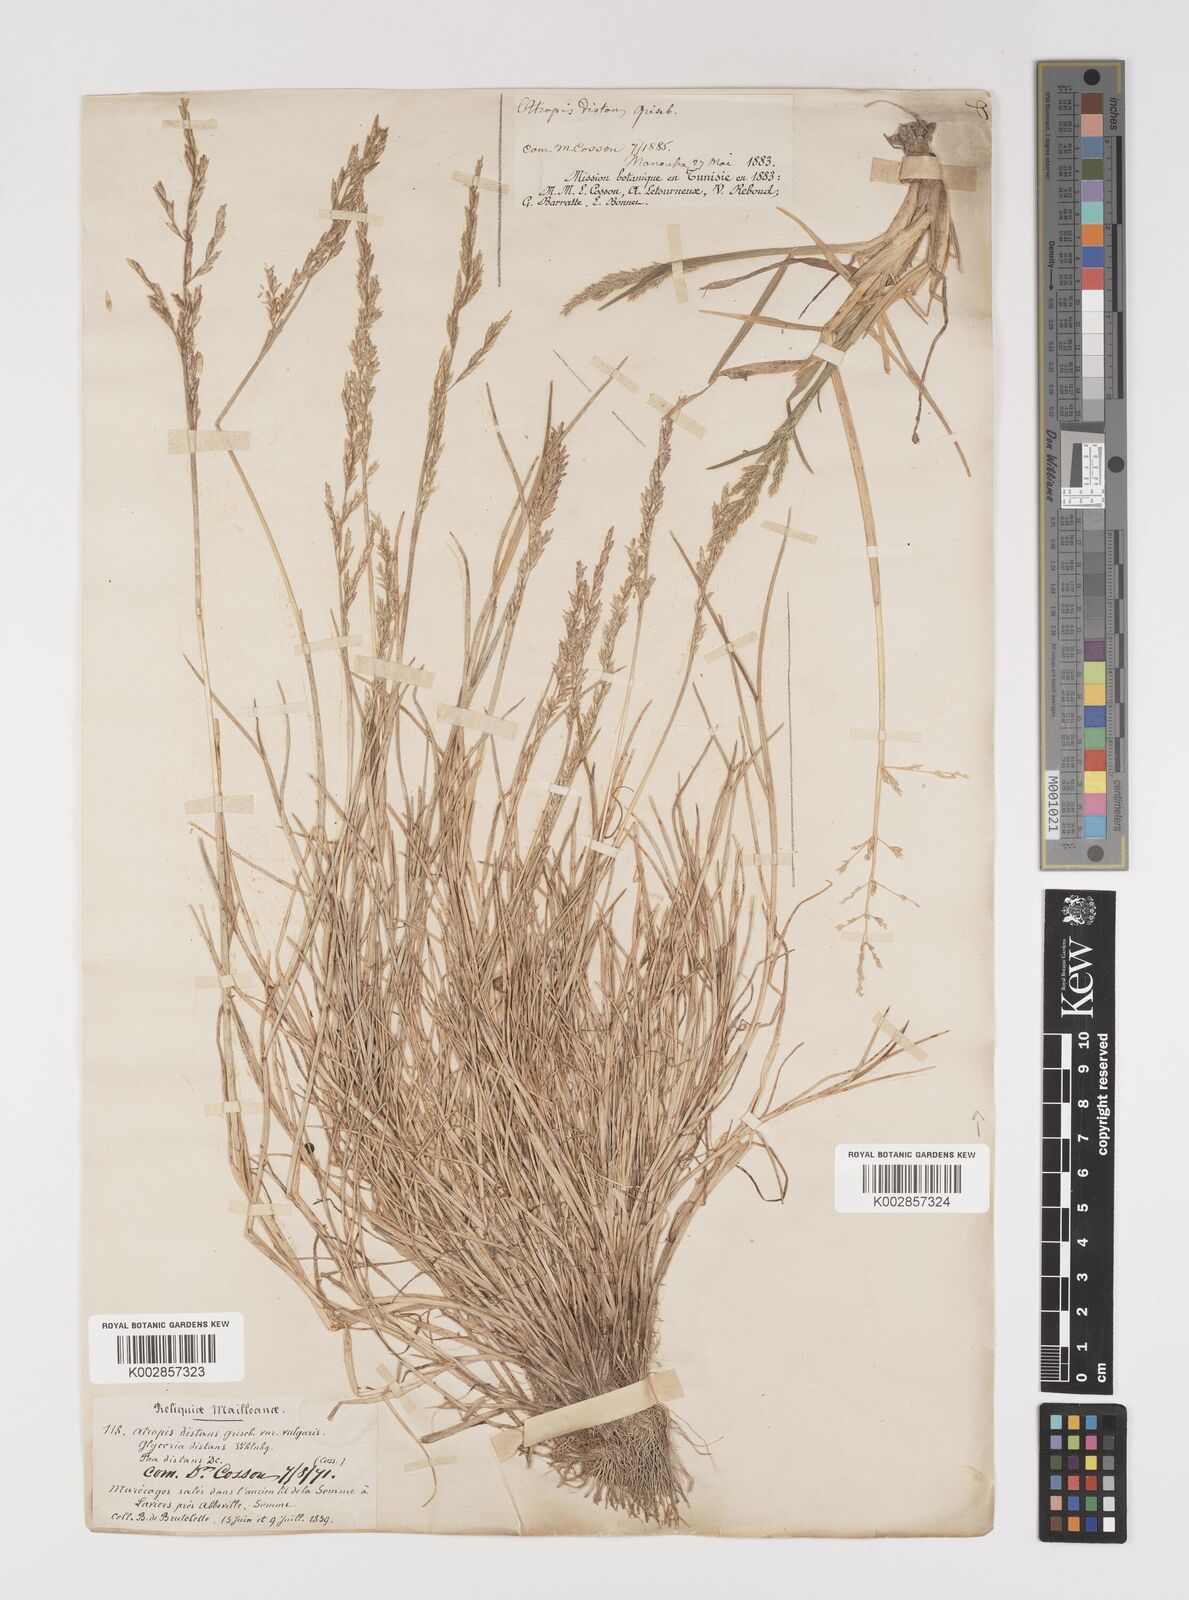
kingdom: Plantae
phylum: Tracheophyta
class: Liliopsida
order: Poales
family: Poaceae
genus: Puccinellia
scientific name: Puccinellia distans
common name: Weeping alkaligrass
